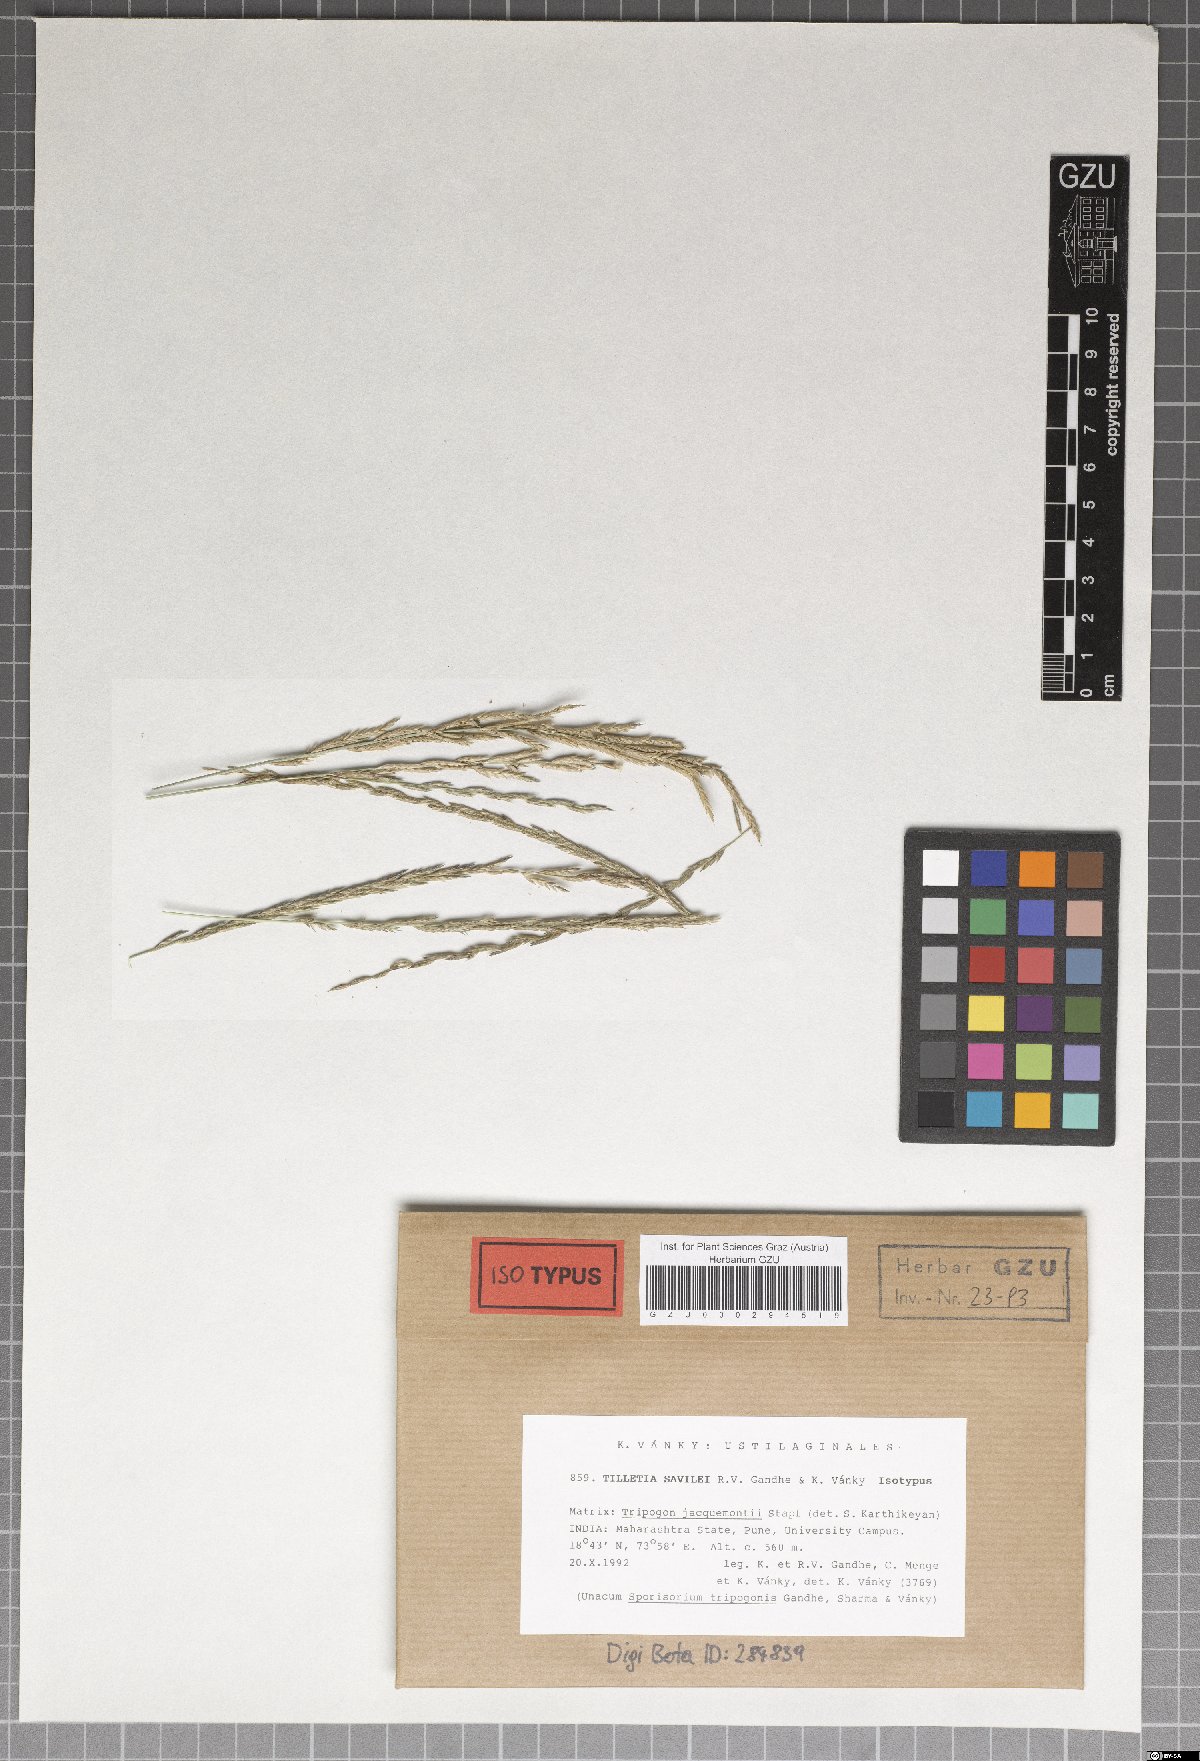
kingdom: Fungi
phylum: Basidiomycota
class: Exobasidiomycetes
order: Tilletiales
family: Tilletiaceae
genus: Tilletia
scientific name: Tilletia savilei
